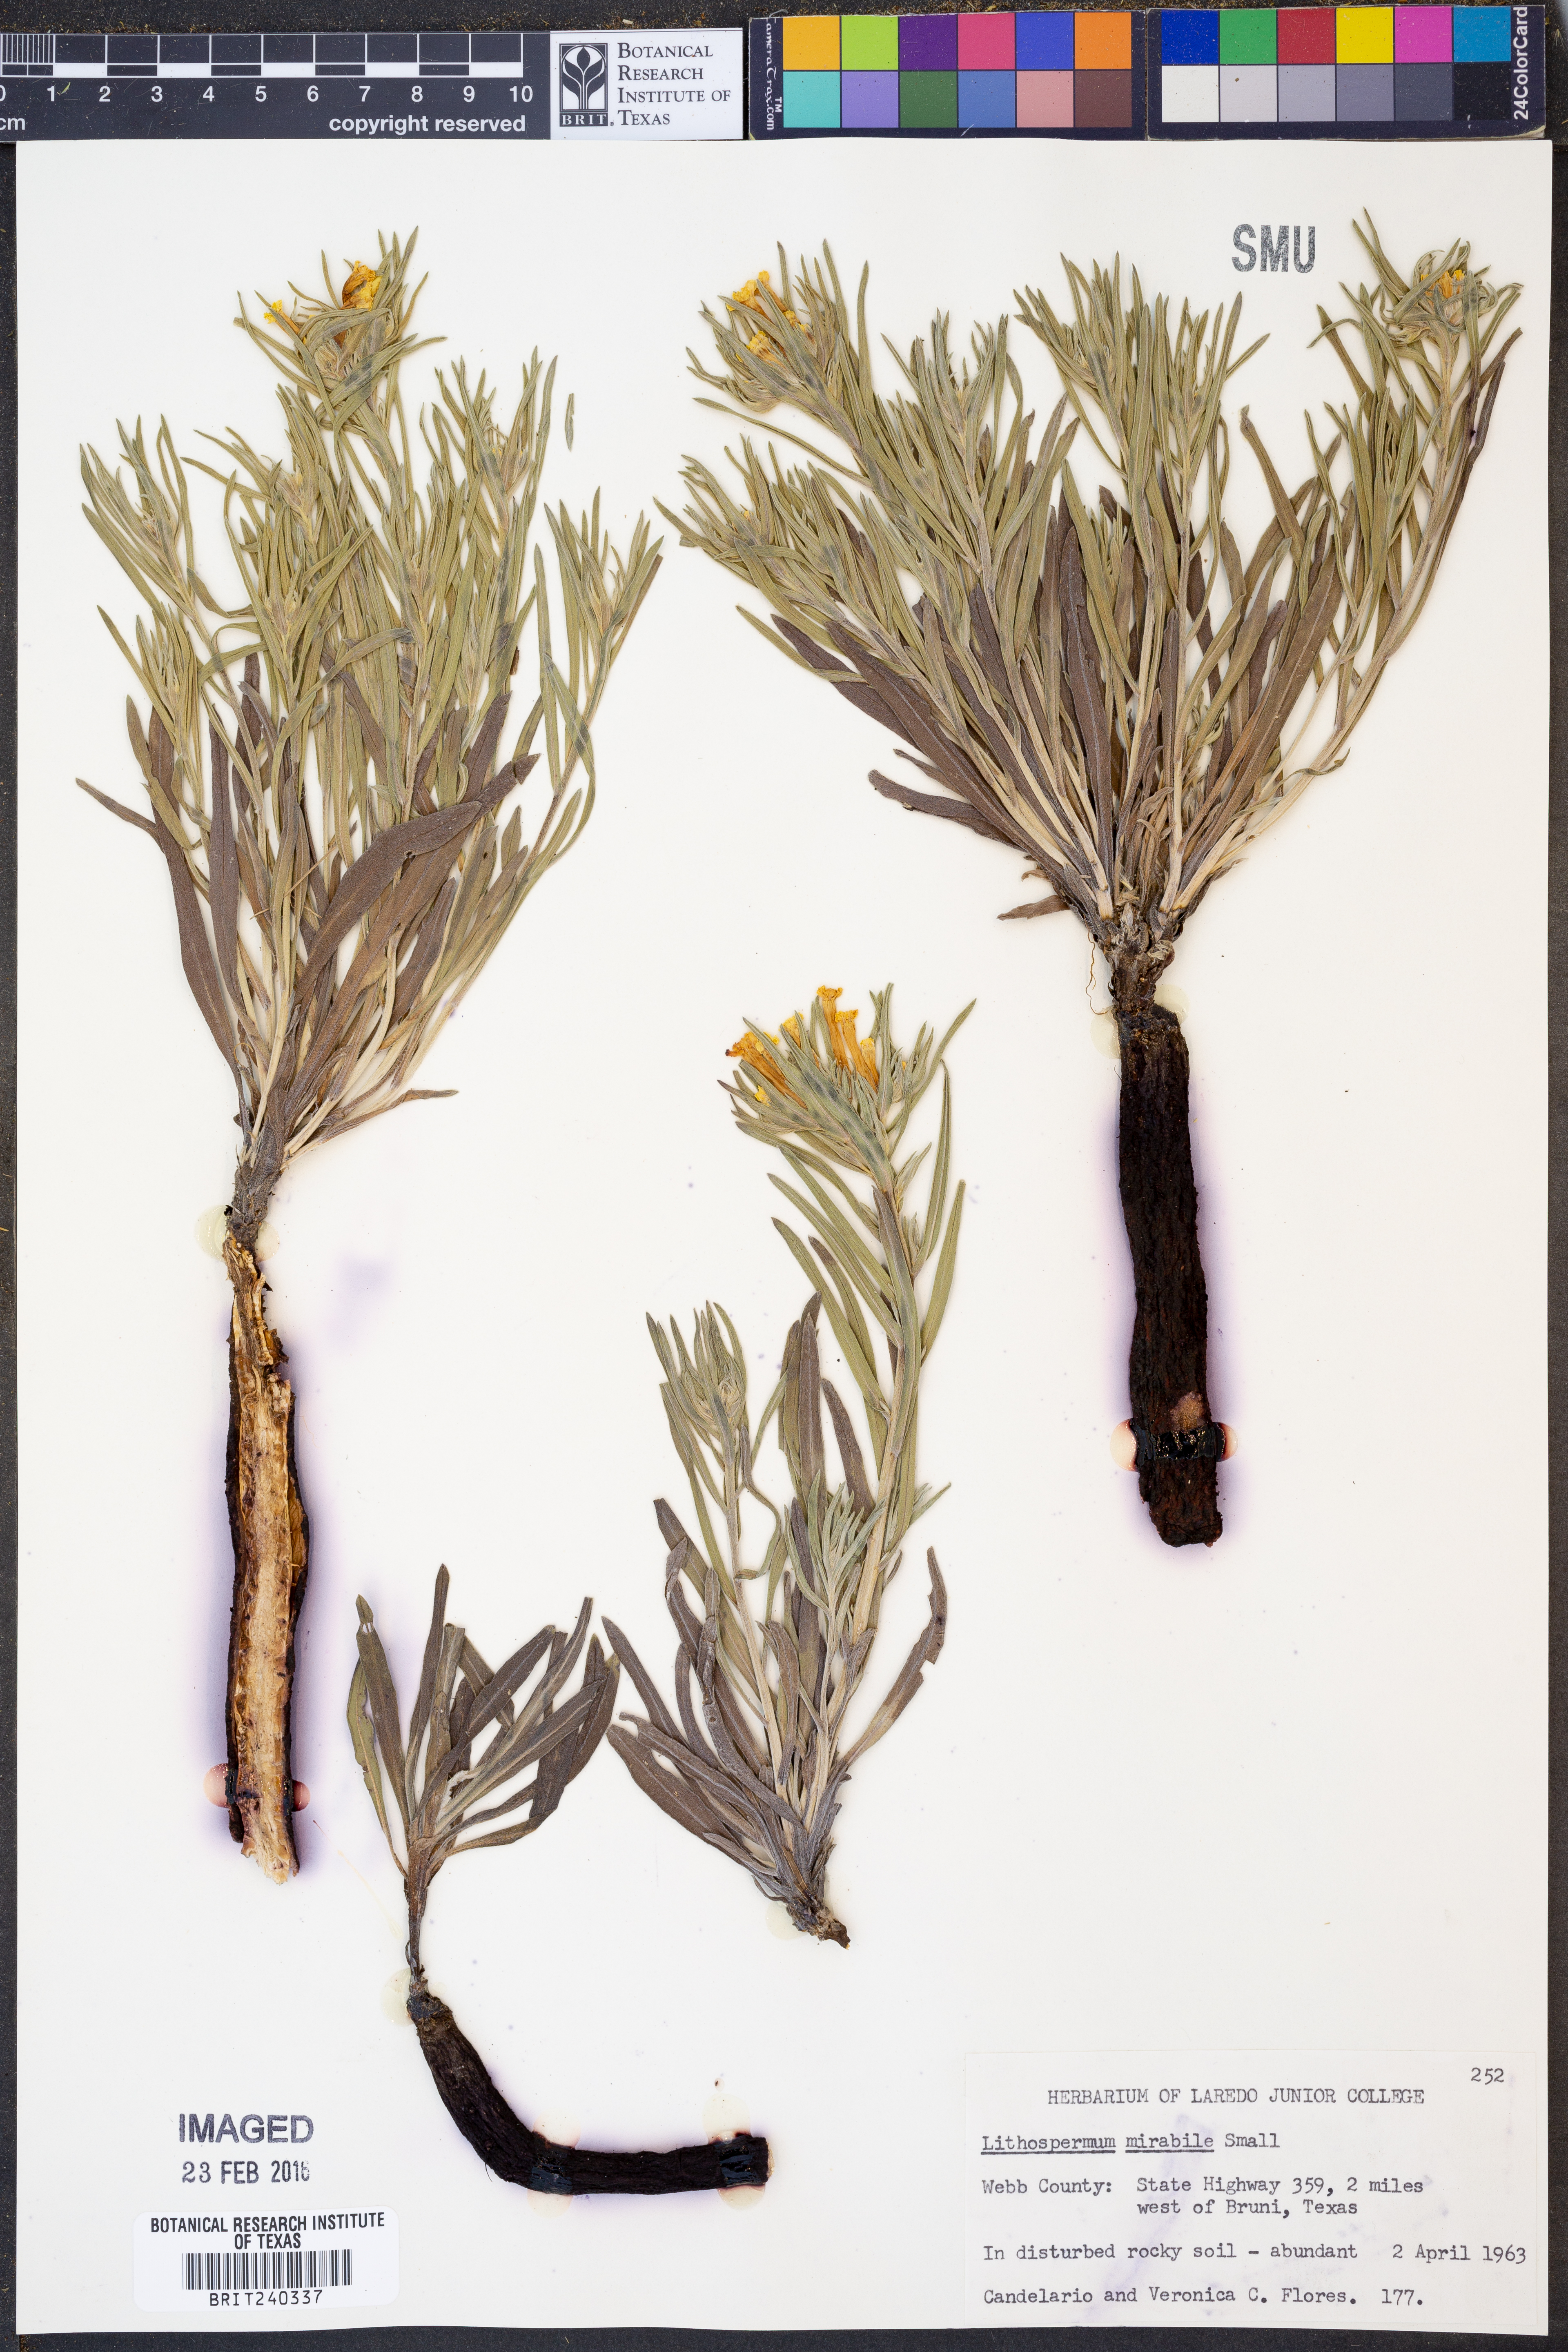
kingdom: Plantae
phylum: Tracheophyta
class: Magnoliopsida
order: Boraginales
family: Boraginaceae
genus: Lithospermum
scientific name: Lithospermum mirabile
